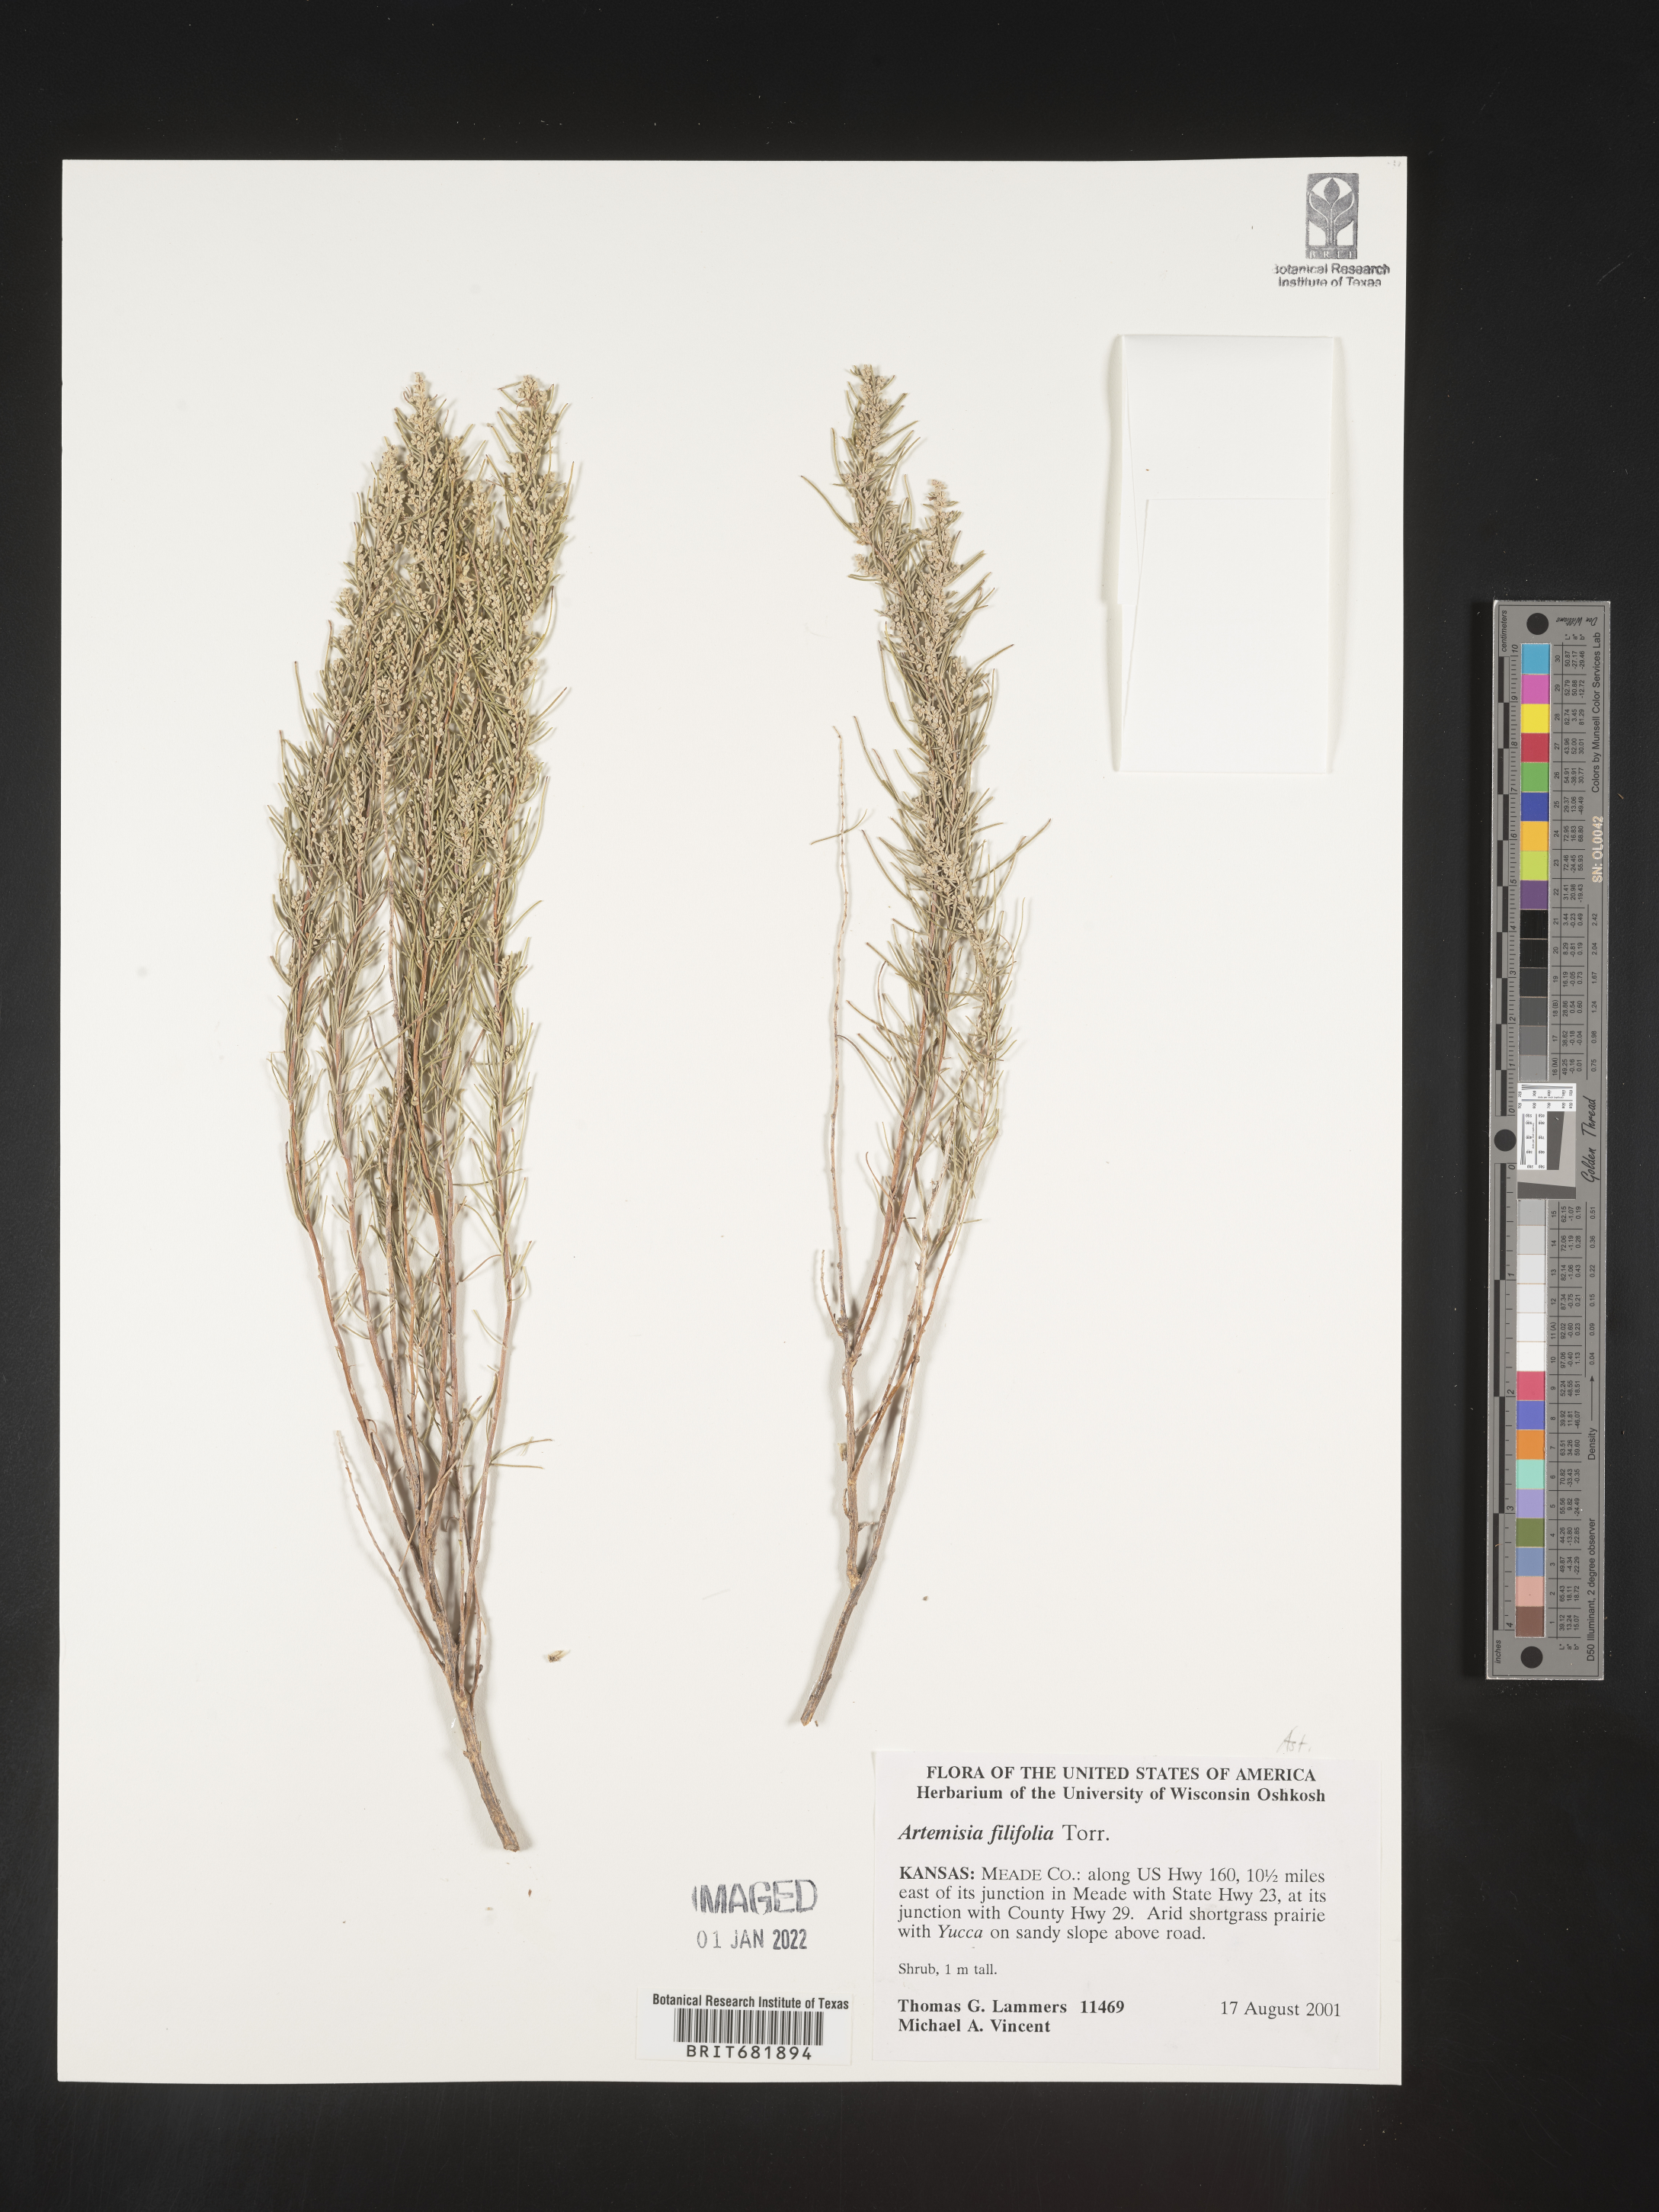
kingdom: Plantae
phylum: Tracheophyta
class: Magnoliopsida
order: Asterales
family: Asteraceae
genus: Artemisia
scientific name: Artemisia filifolia
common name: Sand-sage
